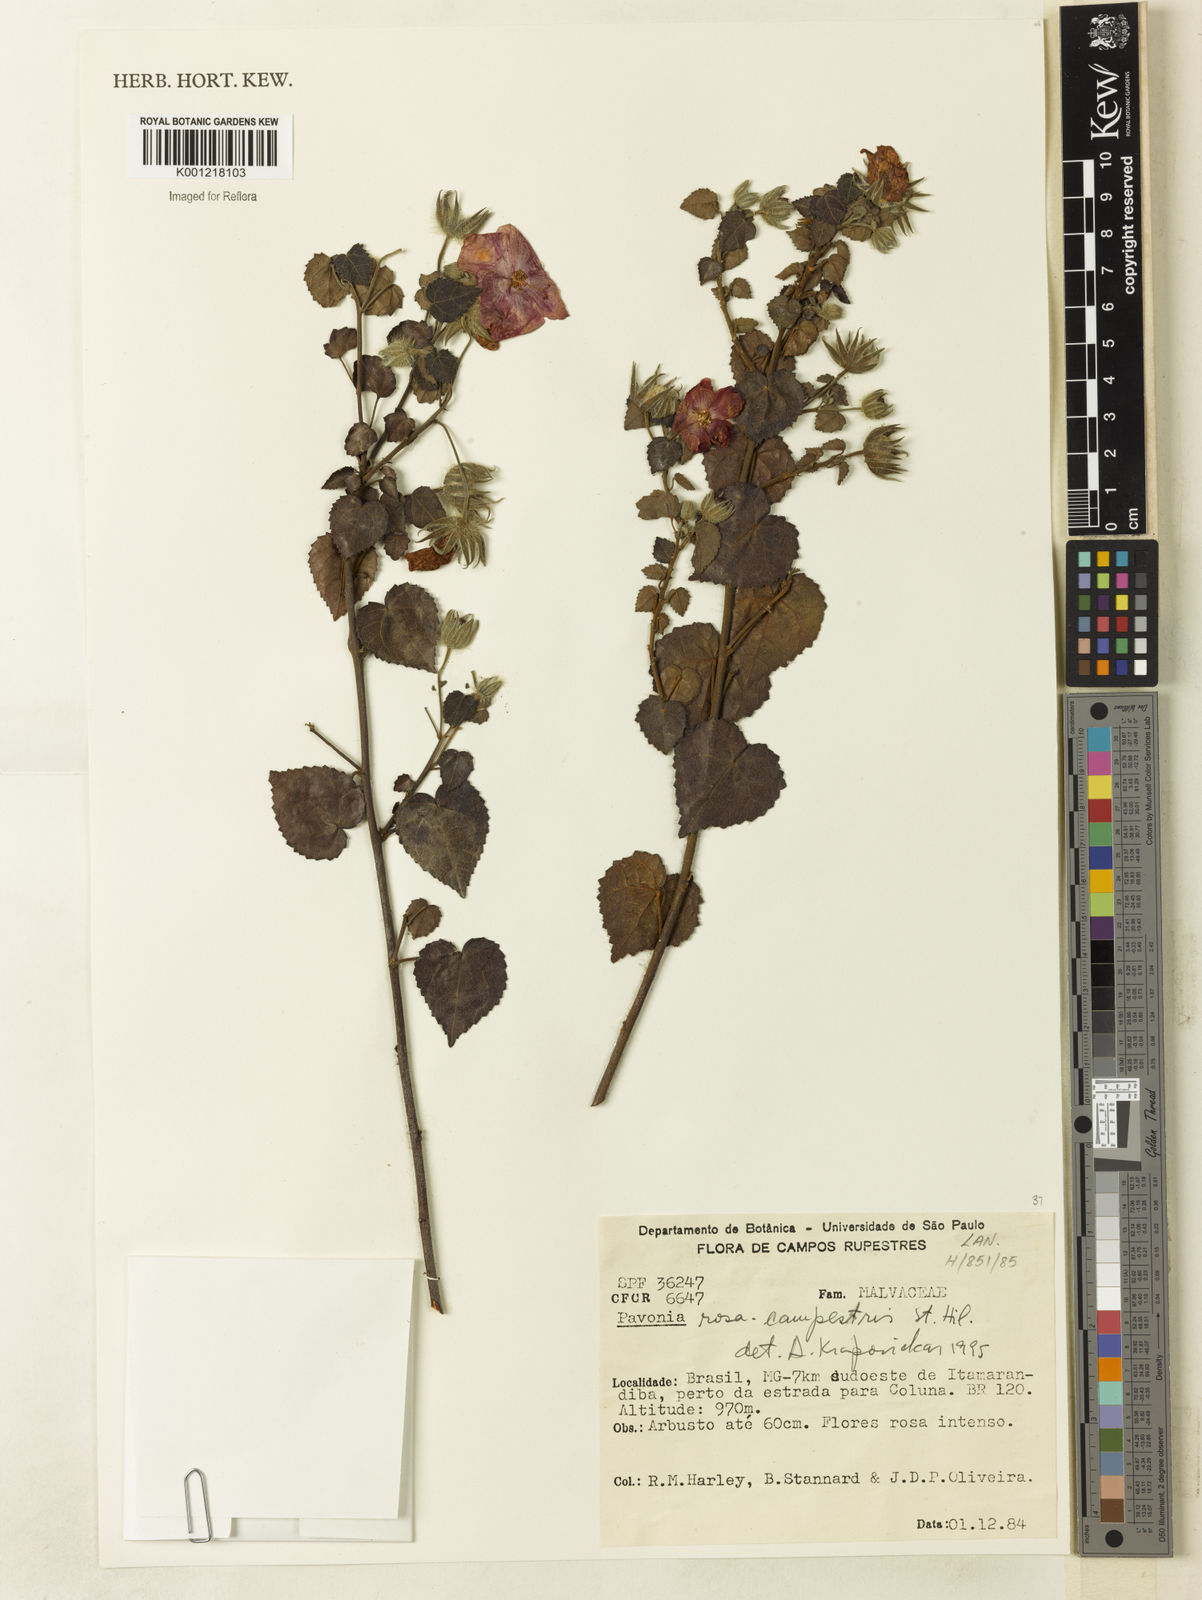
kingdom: Plantae
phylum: Tracheophyta
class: Magnoliopsida
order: Malvales
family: Malvaceae
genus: Pavonia
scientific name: Pavonia rosa-campestris
